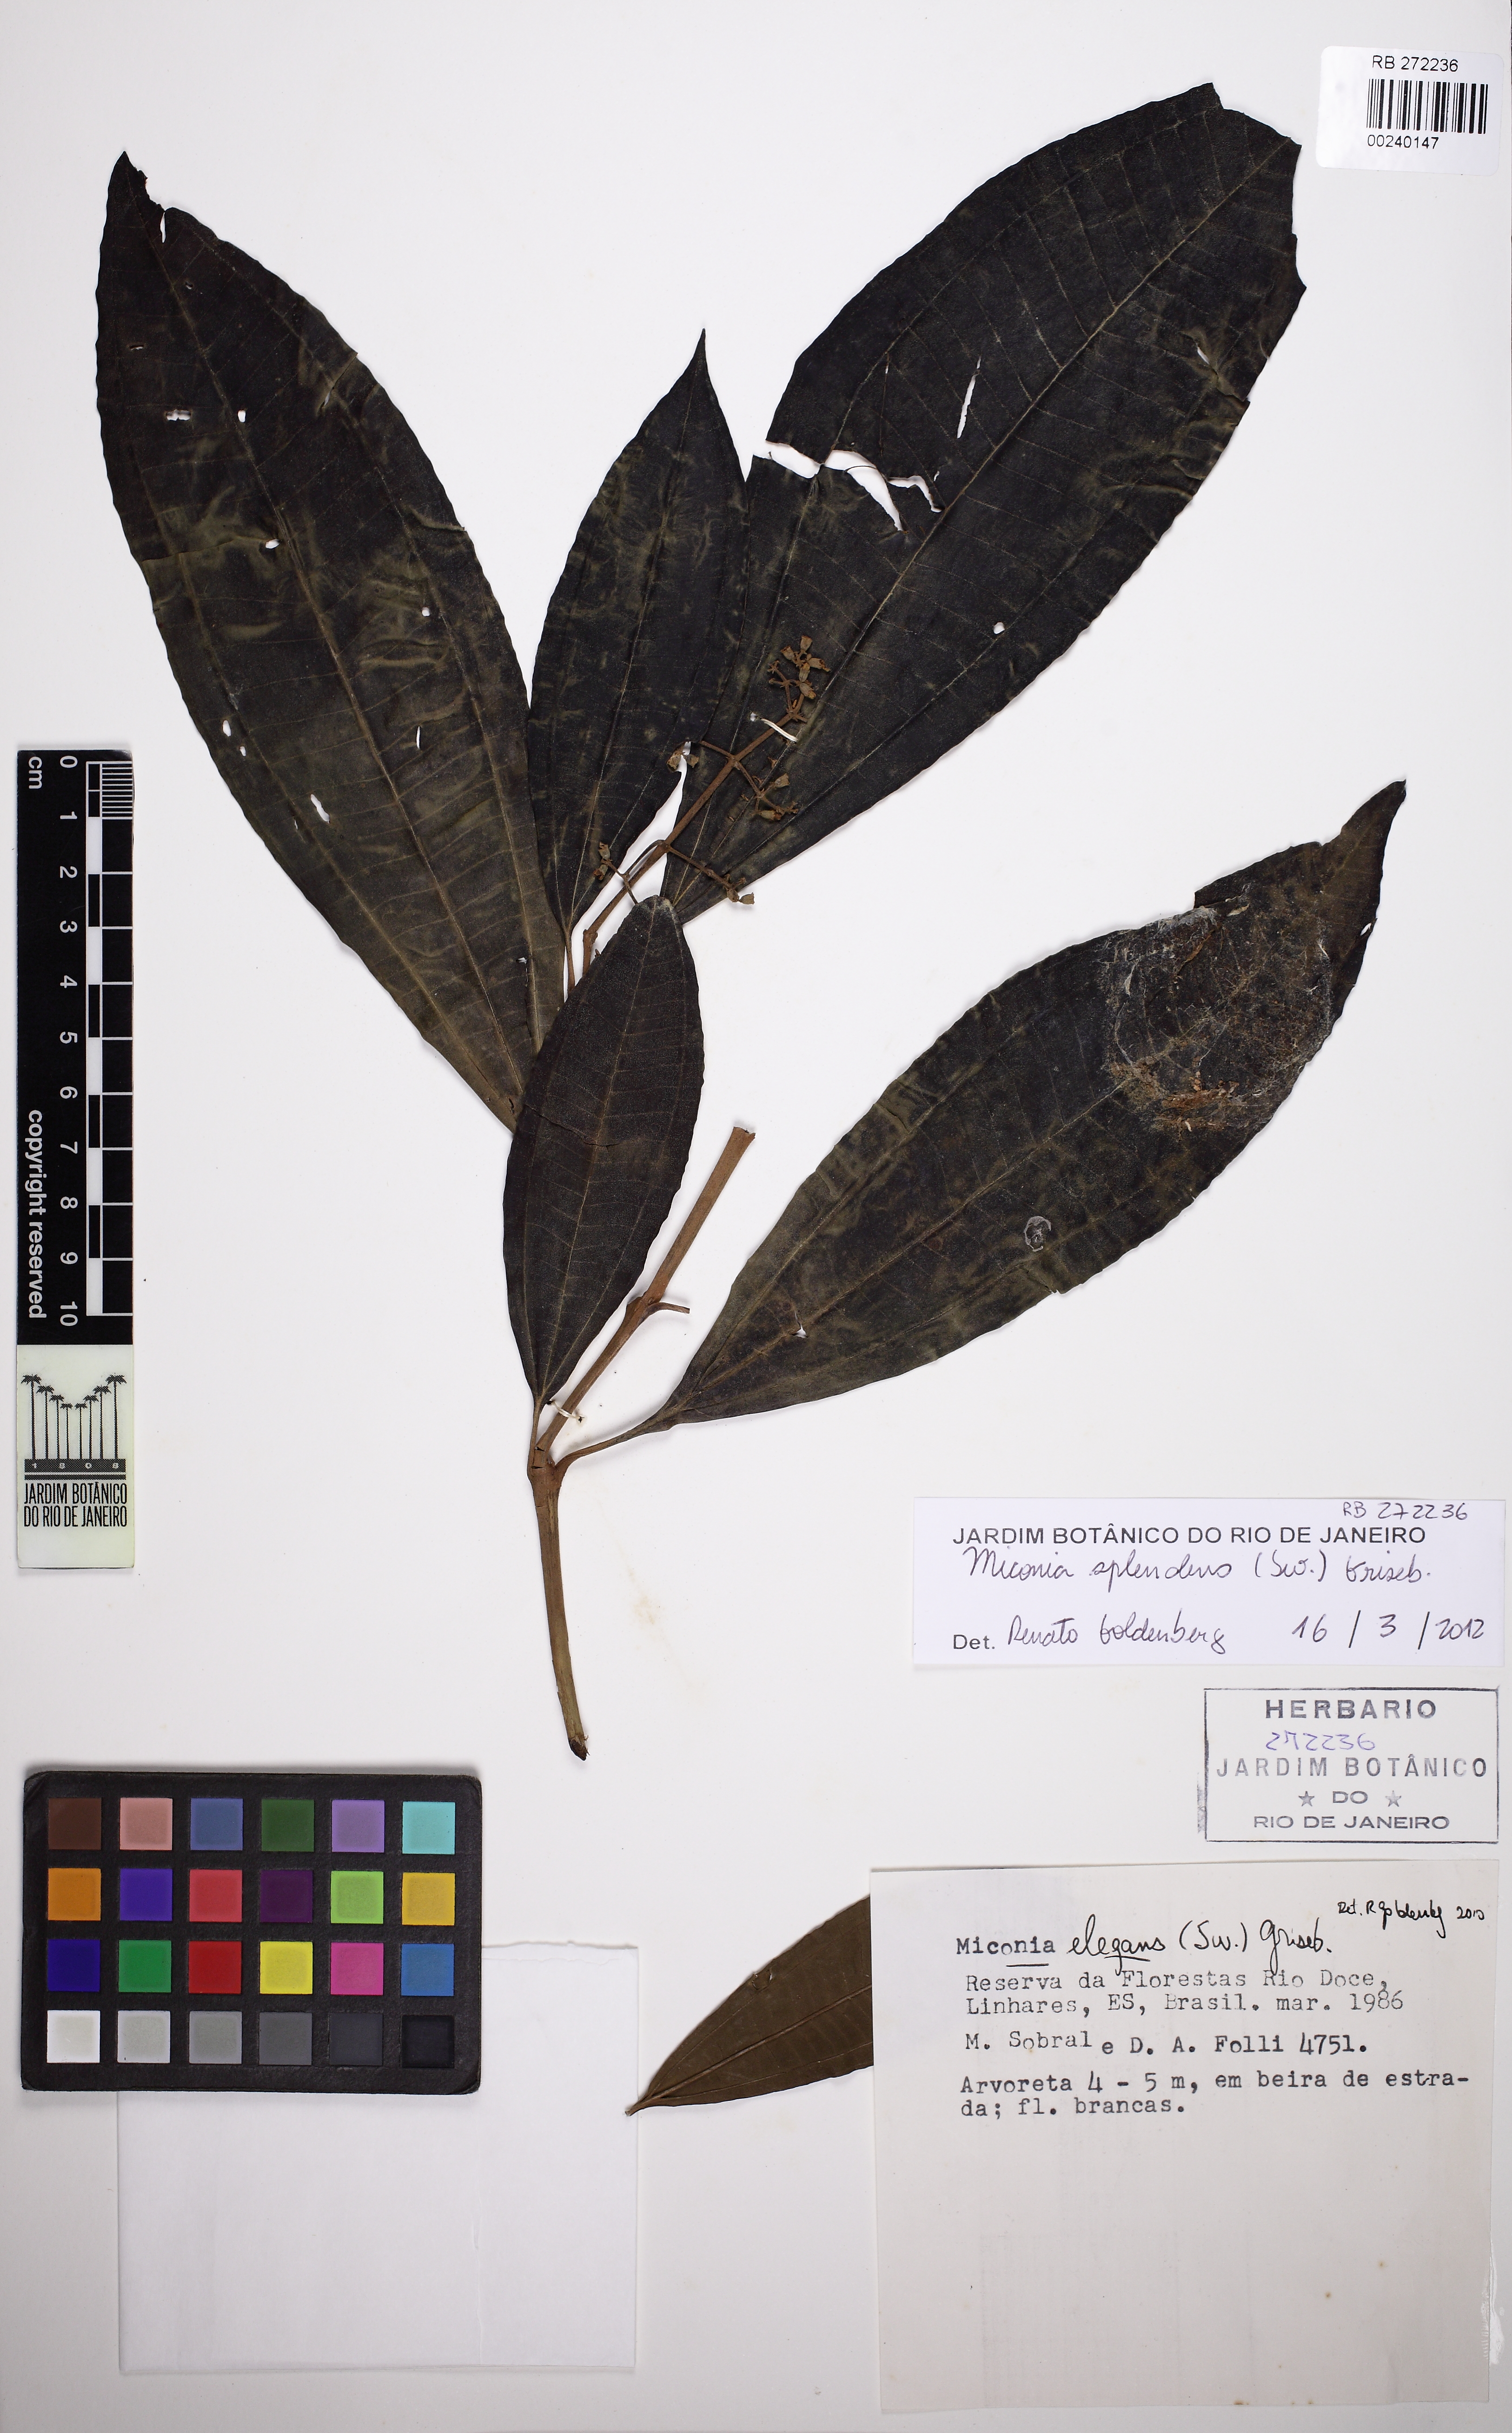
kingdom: Plantae
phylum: Tracheophyta
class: Magnoliopsida
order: Myrtales
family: Melastomataceae
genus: Miconia
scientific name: Miconia splendens
